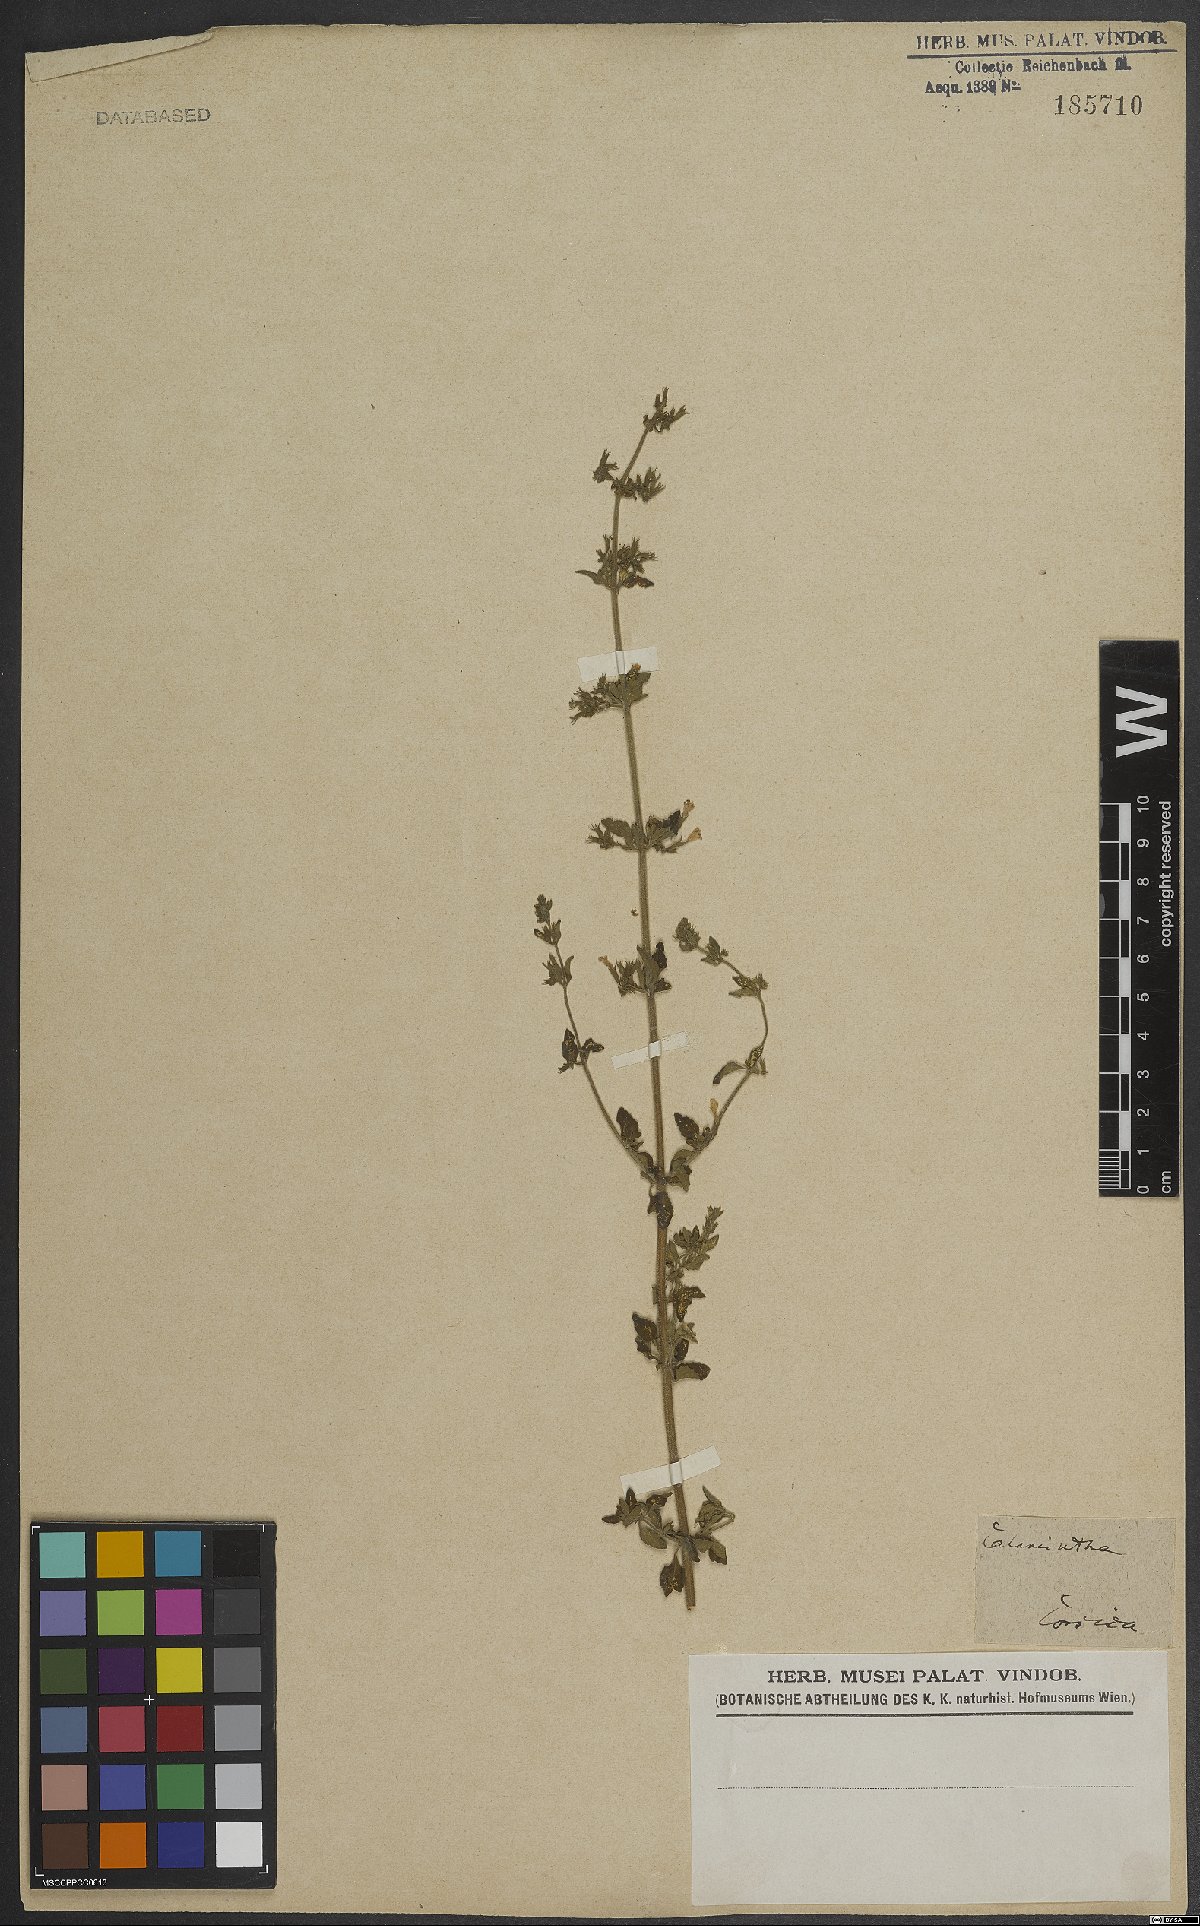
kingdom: Plantae
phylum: Tracheophyta
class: Magnoliopsida
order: Lamiales
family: Lamiaceae
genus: Clinopodium
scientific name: Clinopodium nepeta
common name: Lesser calamint
